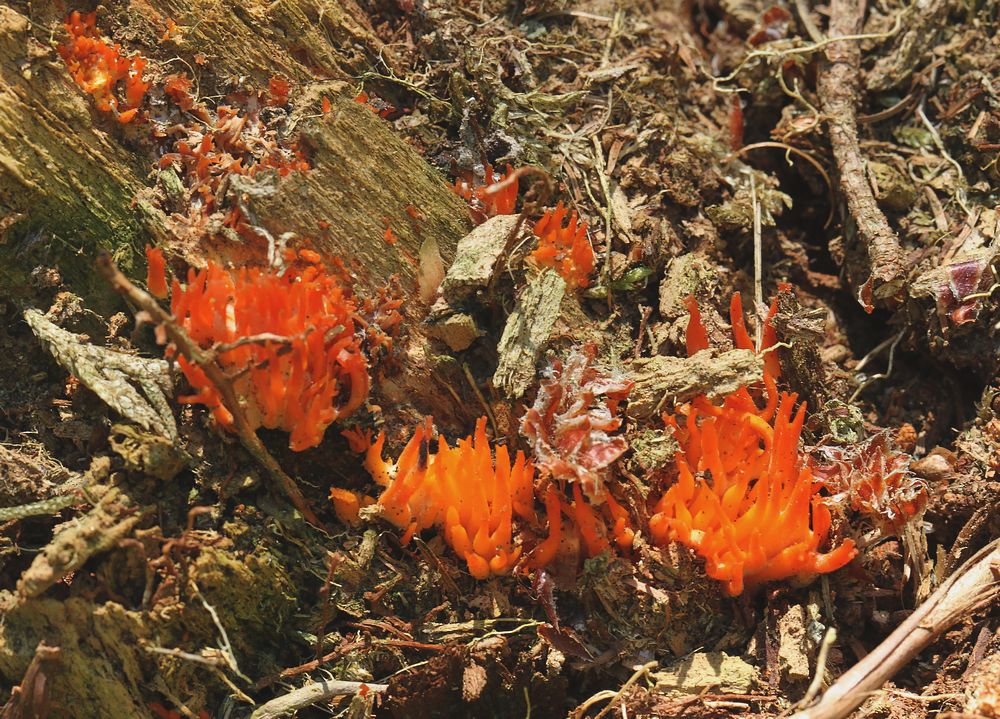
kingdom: Fungi
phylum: Basidiomycota
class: Dacrymycetes
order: Dacrymycetales
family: Dacrymycetaceae
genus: Calocera
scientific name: Calocera
